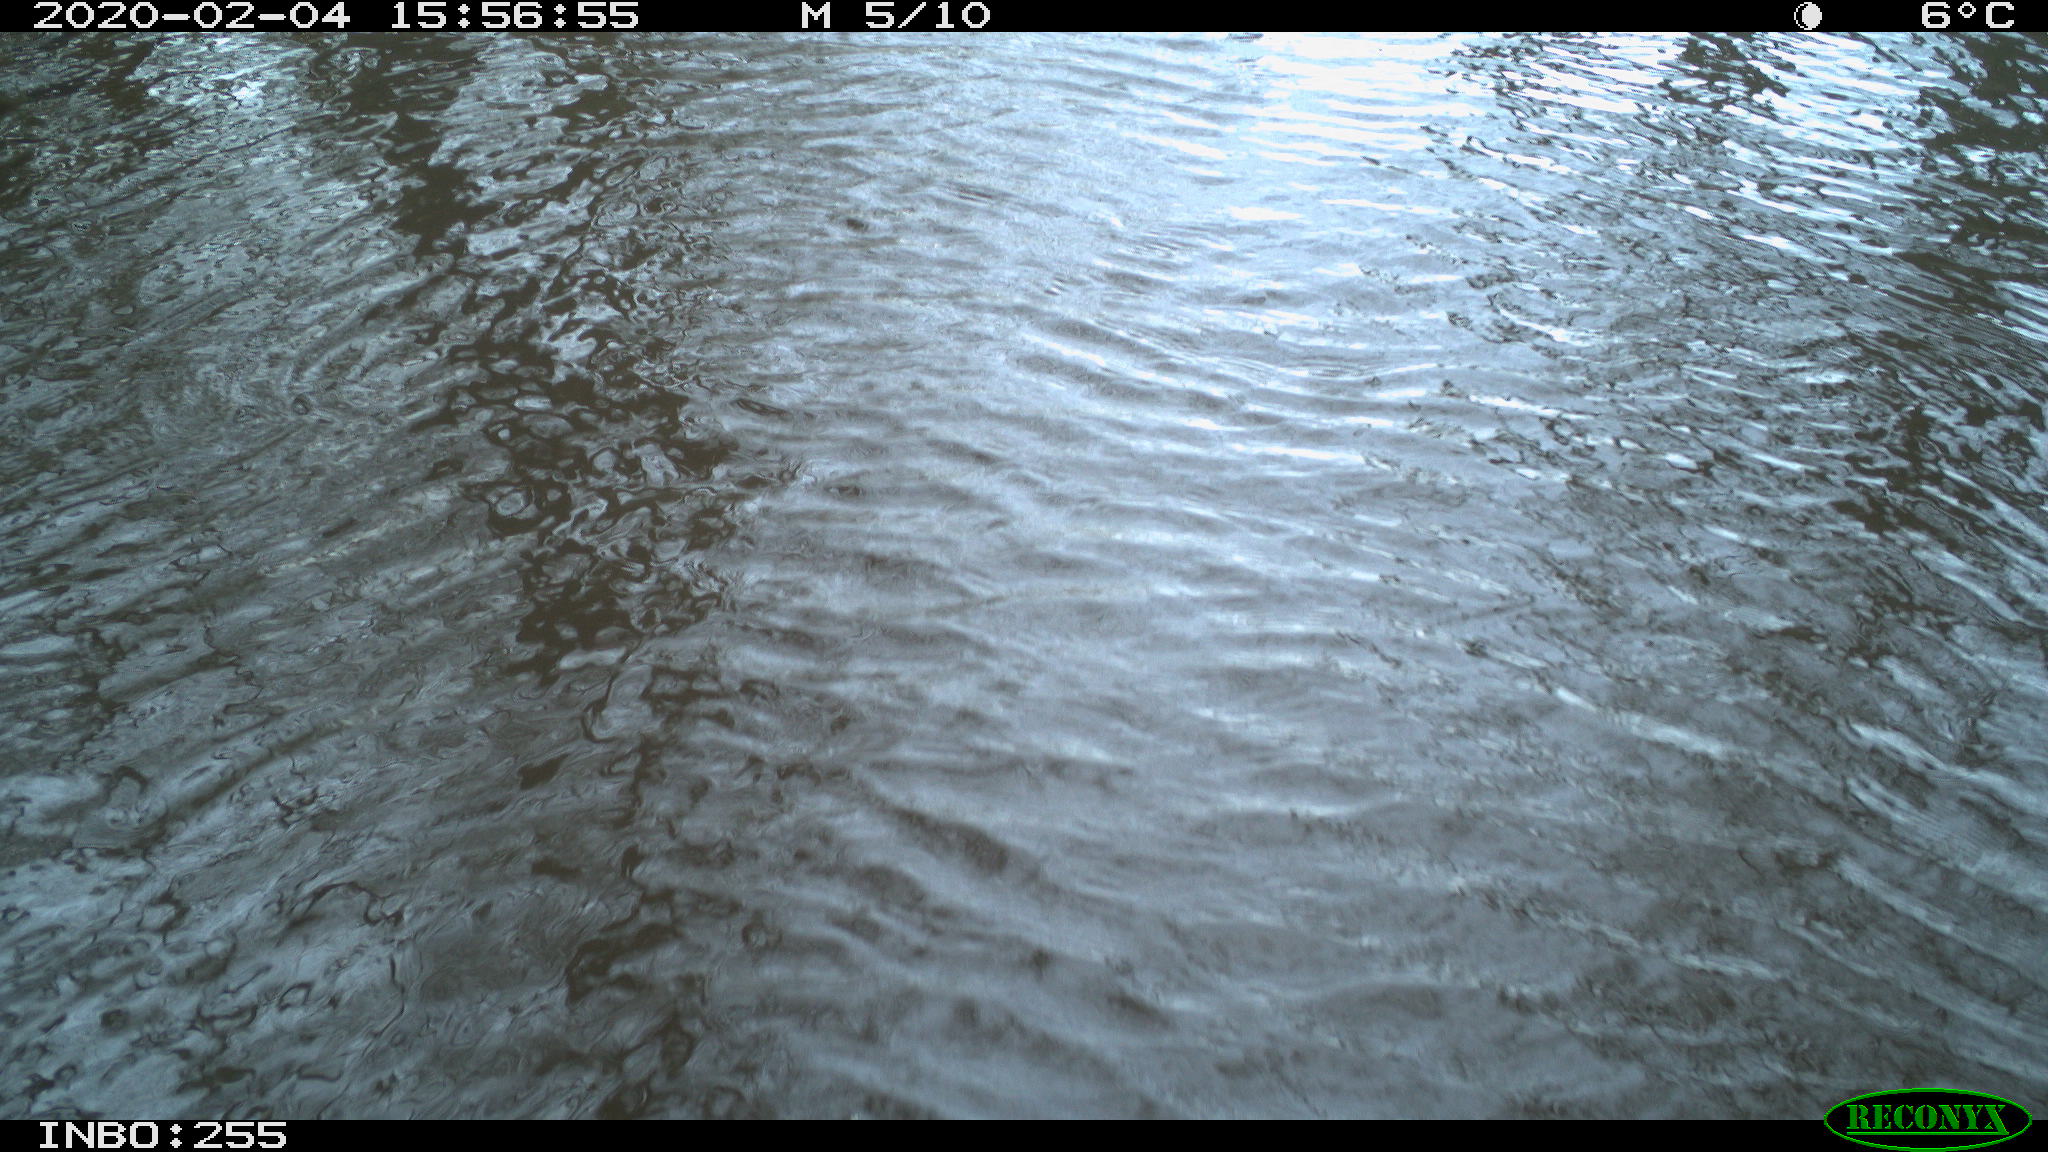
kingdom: Animalia
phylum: Chordata
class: Aves
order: Gruiformes
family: Rallidae
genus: Fulica
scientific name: Fulica atra
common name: Eurasian coot
